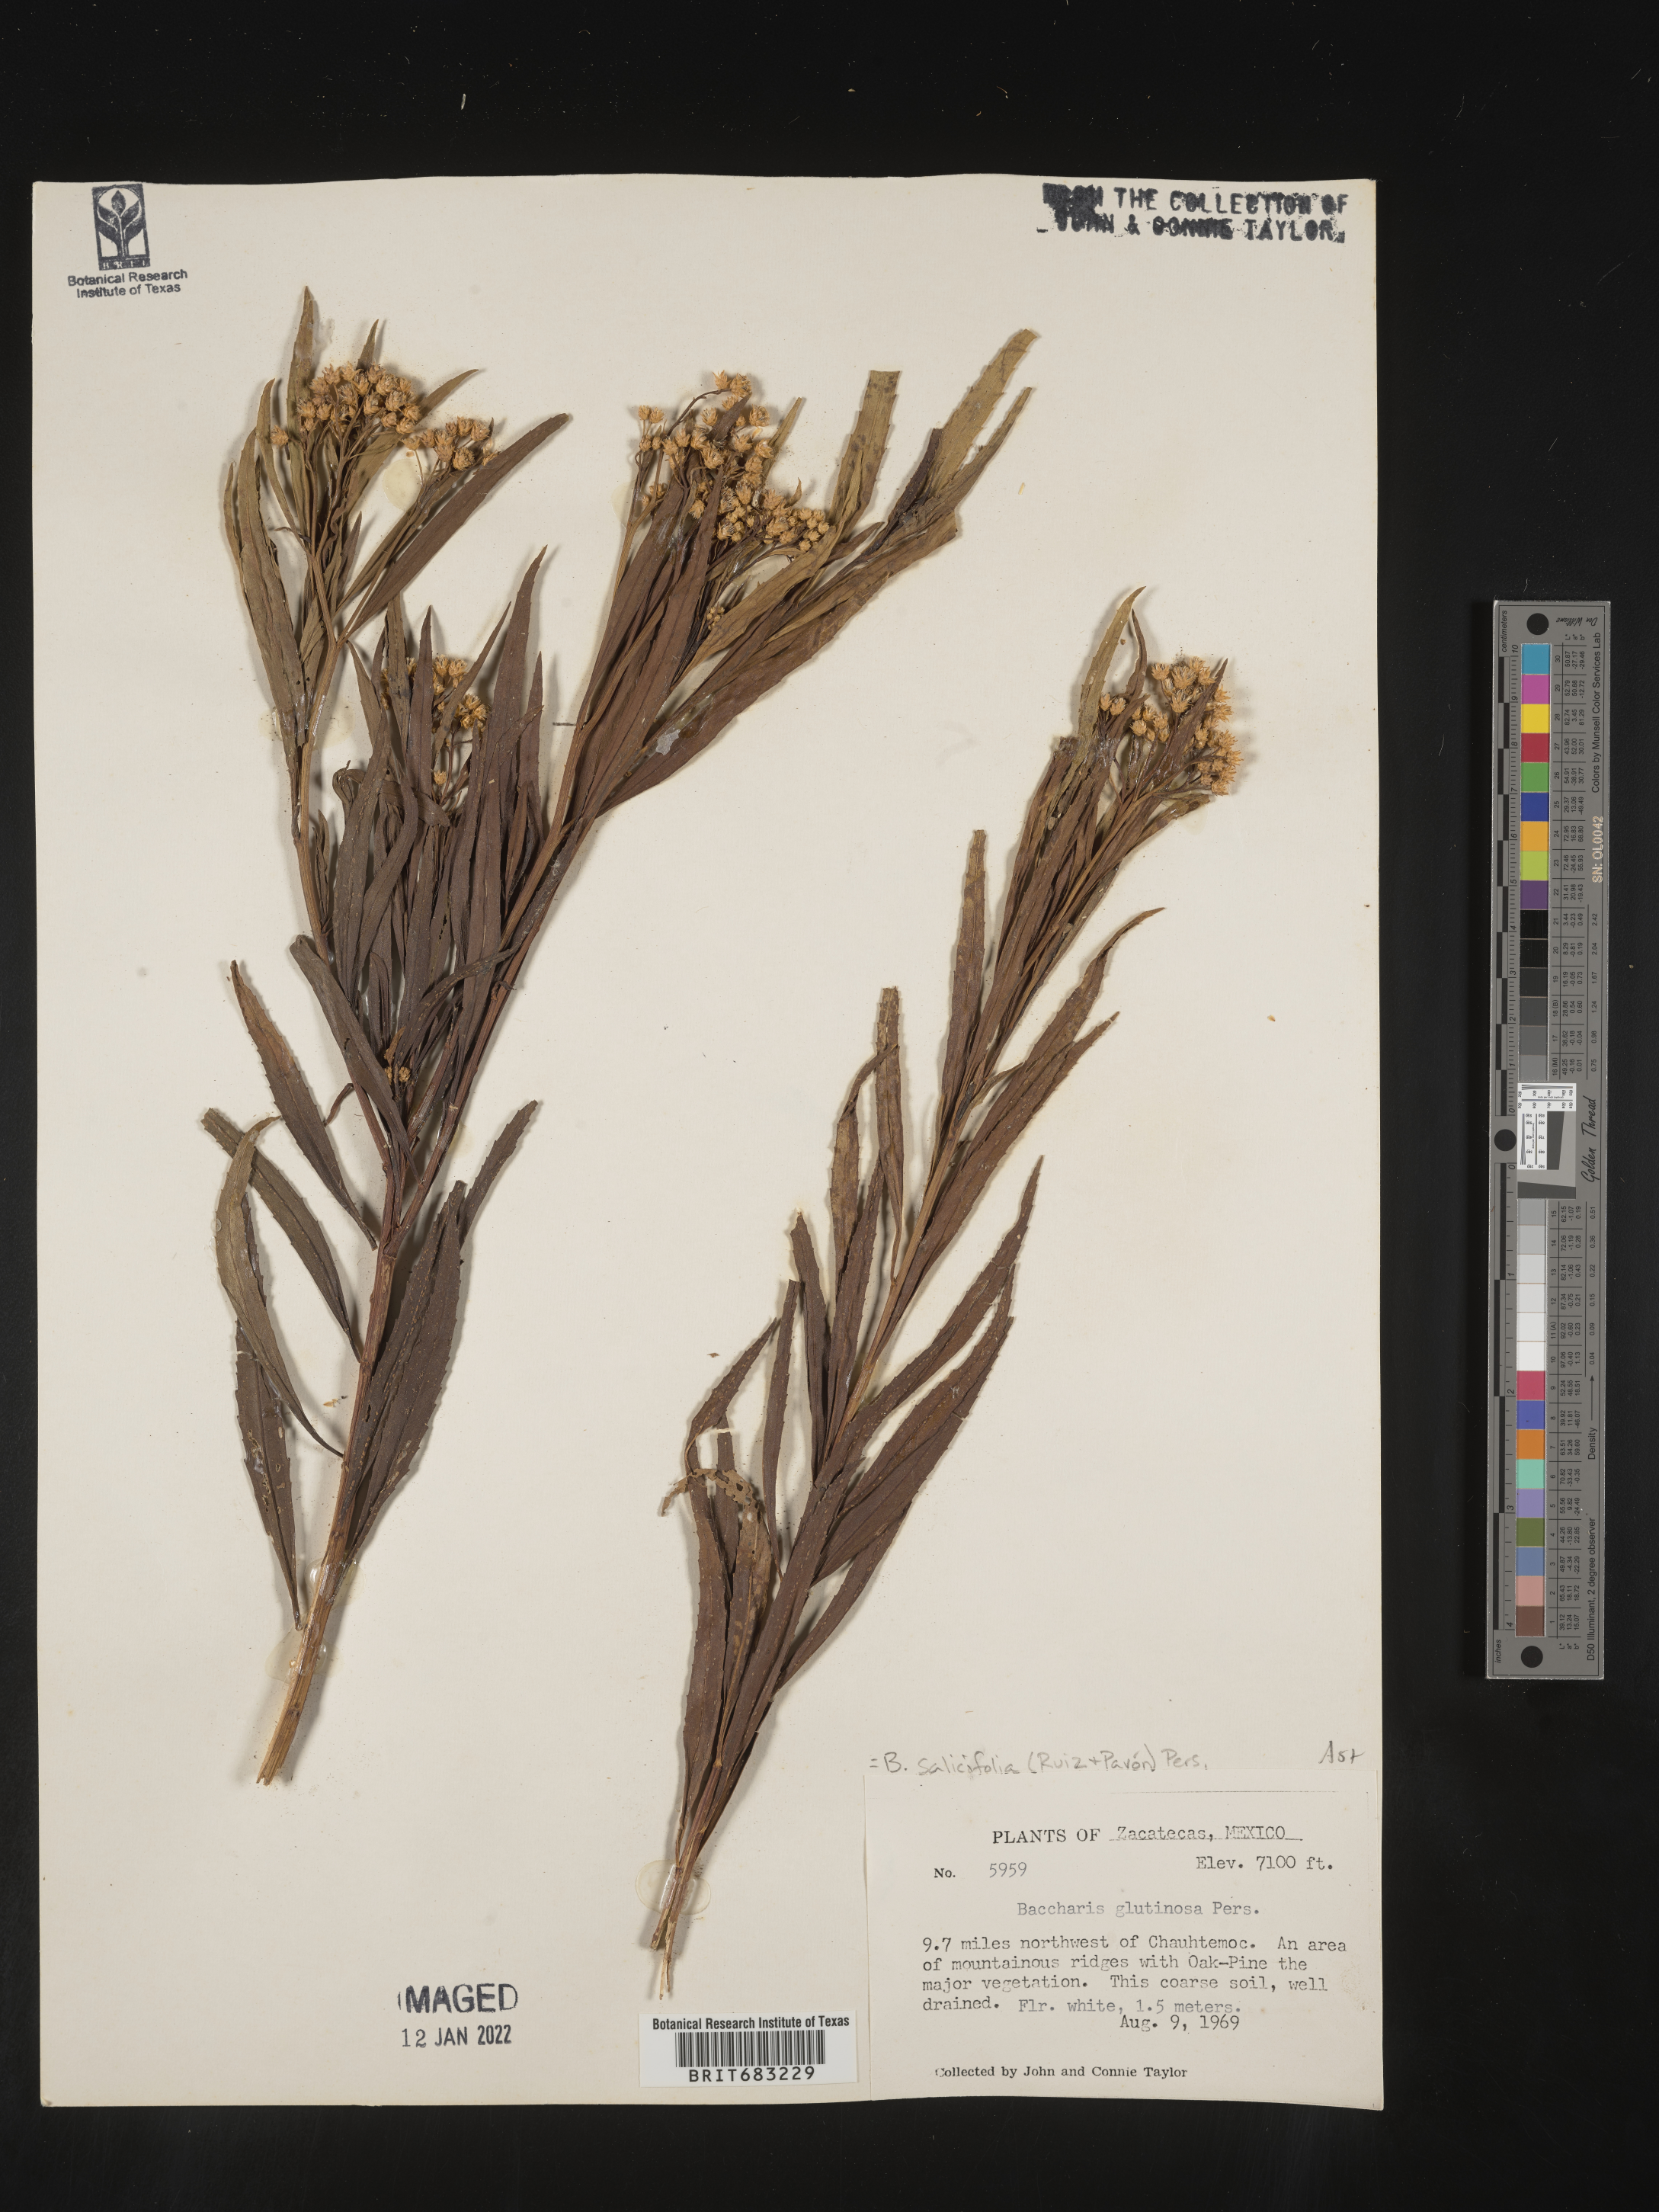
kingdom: Plantae
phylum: Tracheophyta
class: Magnoliopsida
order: Asterales
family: Asteraceae
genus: Baccharis
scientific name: Baccharis salicifolia
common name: Sticky baccharis
